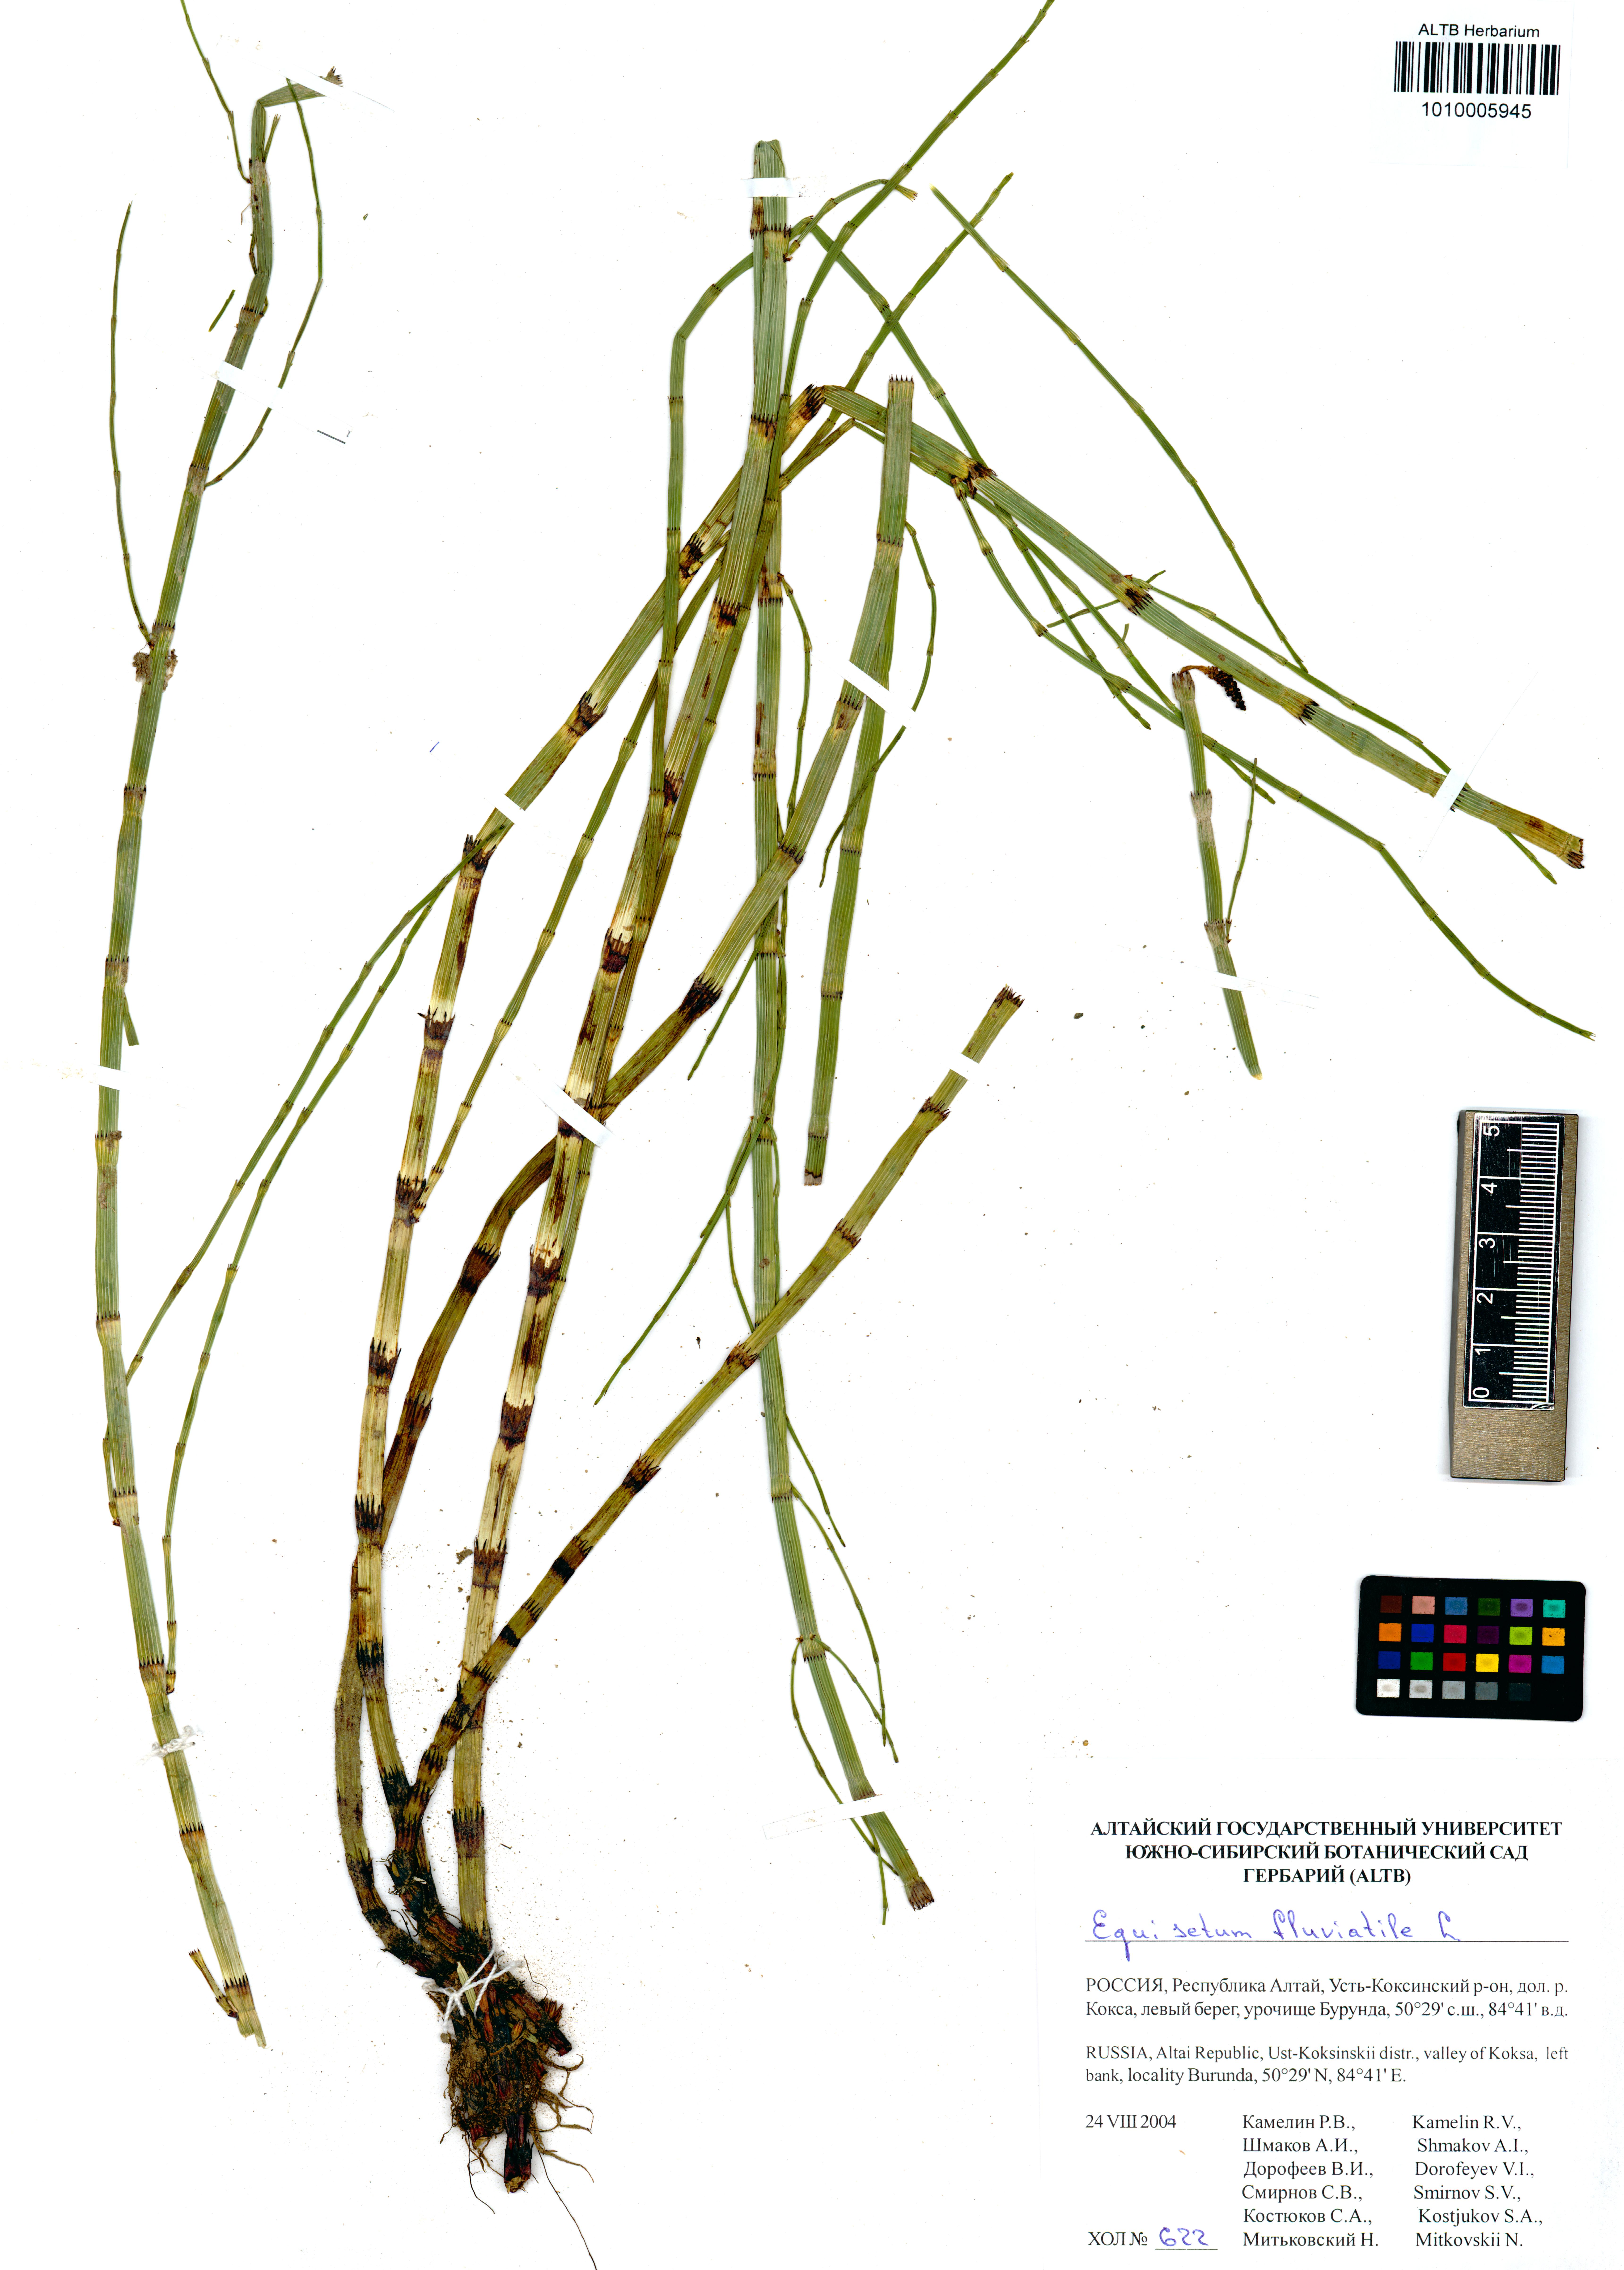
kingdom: Plantae
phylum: Tracheophyta
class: Polypodiopsida
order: Equisetales
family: Equisetaceae
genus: Equisetum
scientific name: Equisetum fluviatile
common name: Water horsetail
